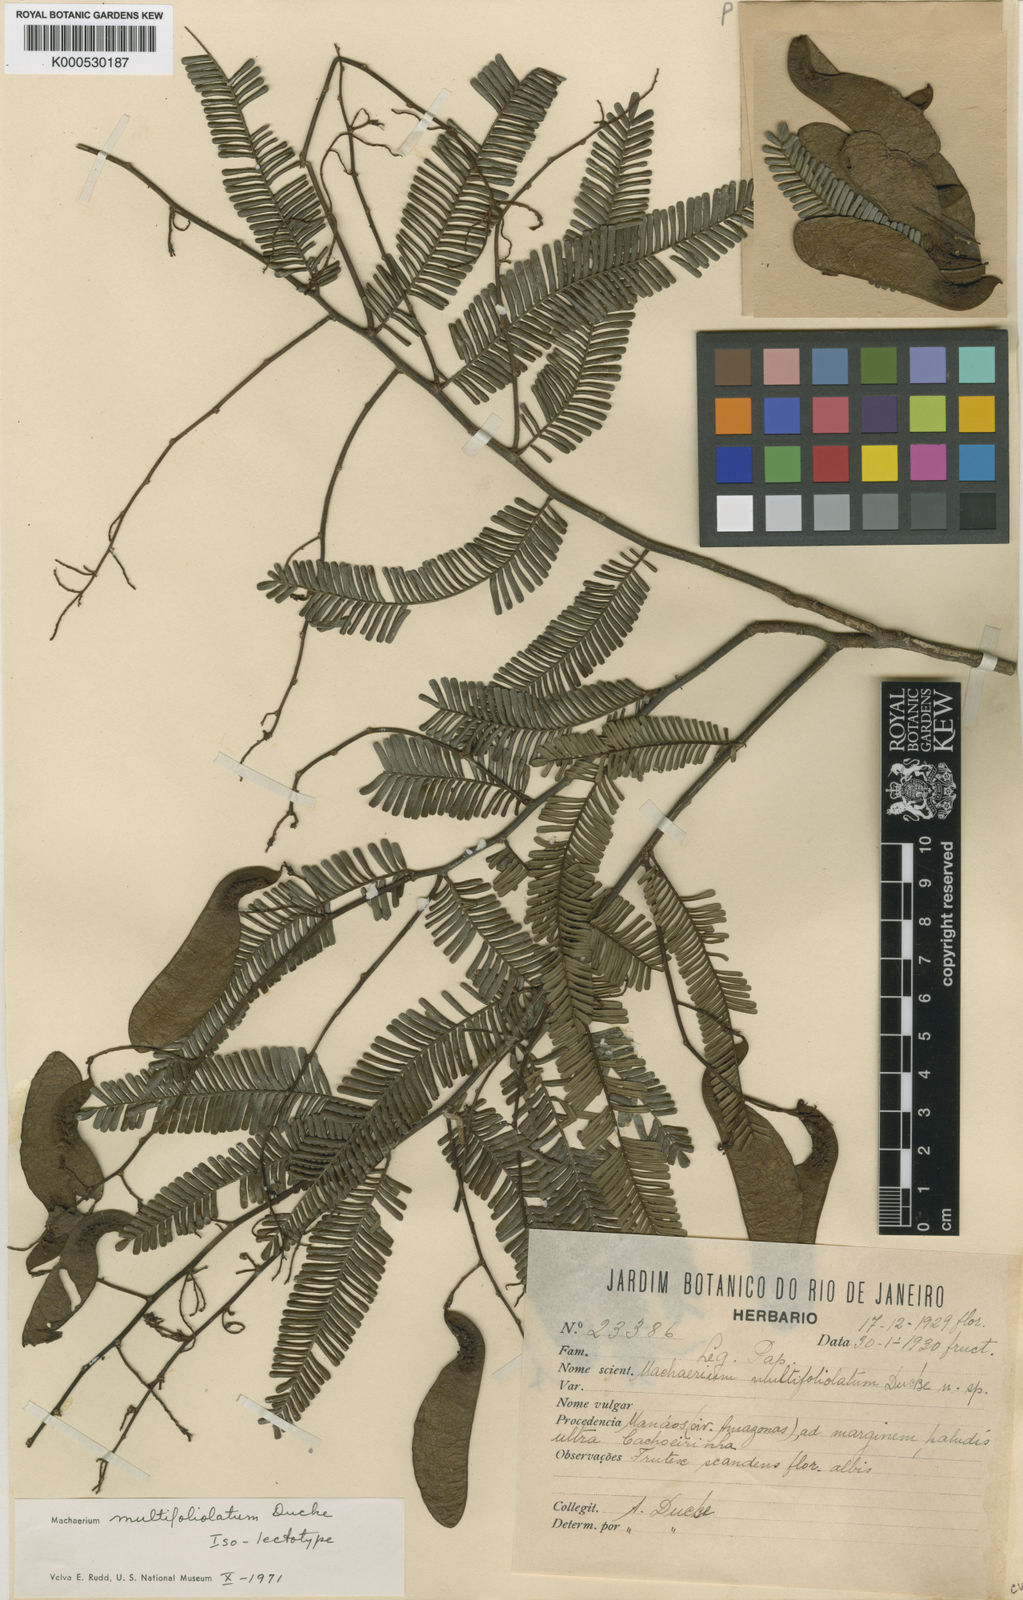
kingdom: Plantae
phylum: Tracheophyta
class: Magnoliopsida
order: Fabales
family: Fabaceae
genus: Machaerium
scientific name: Machaerium multifoliolatum
